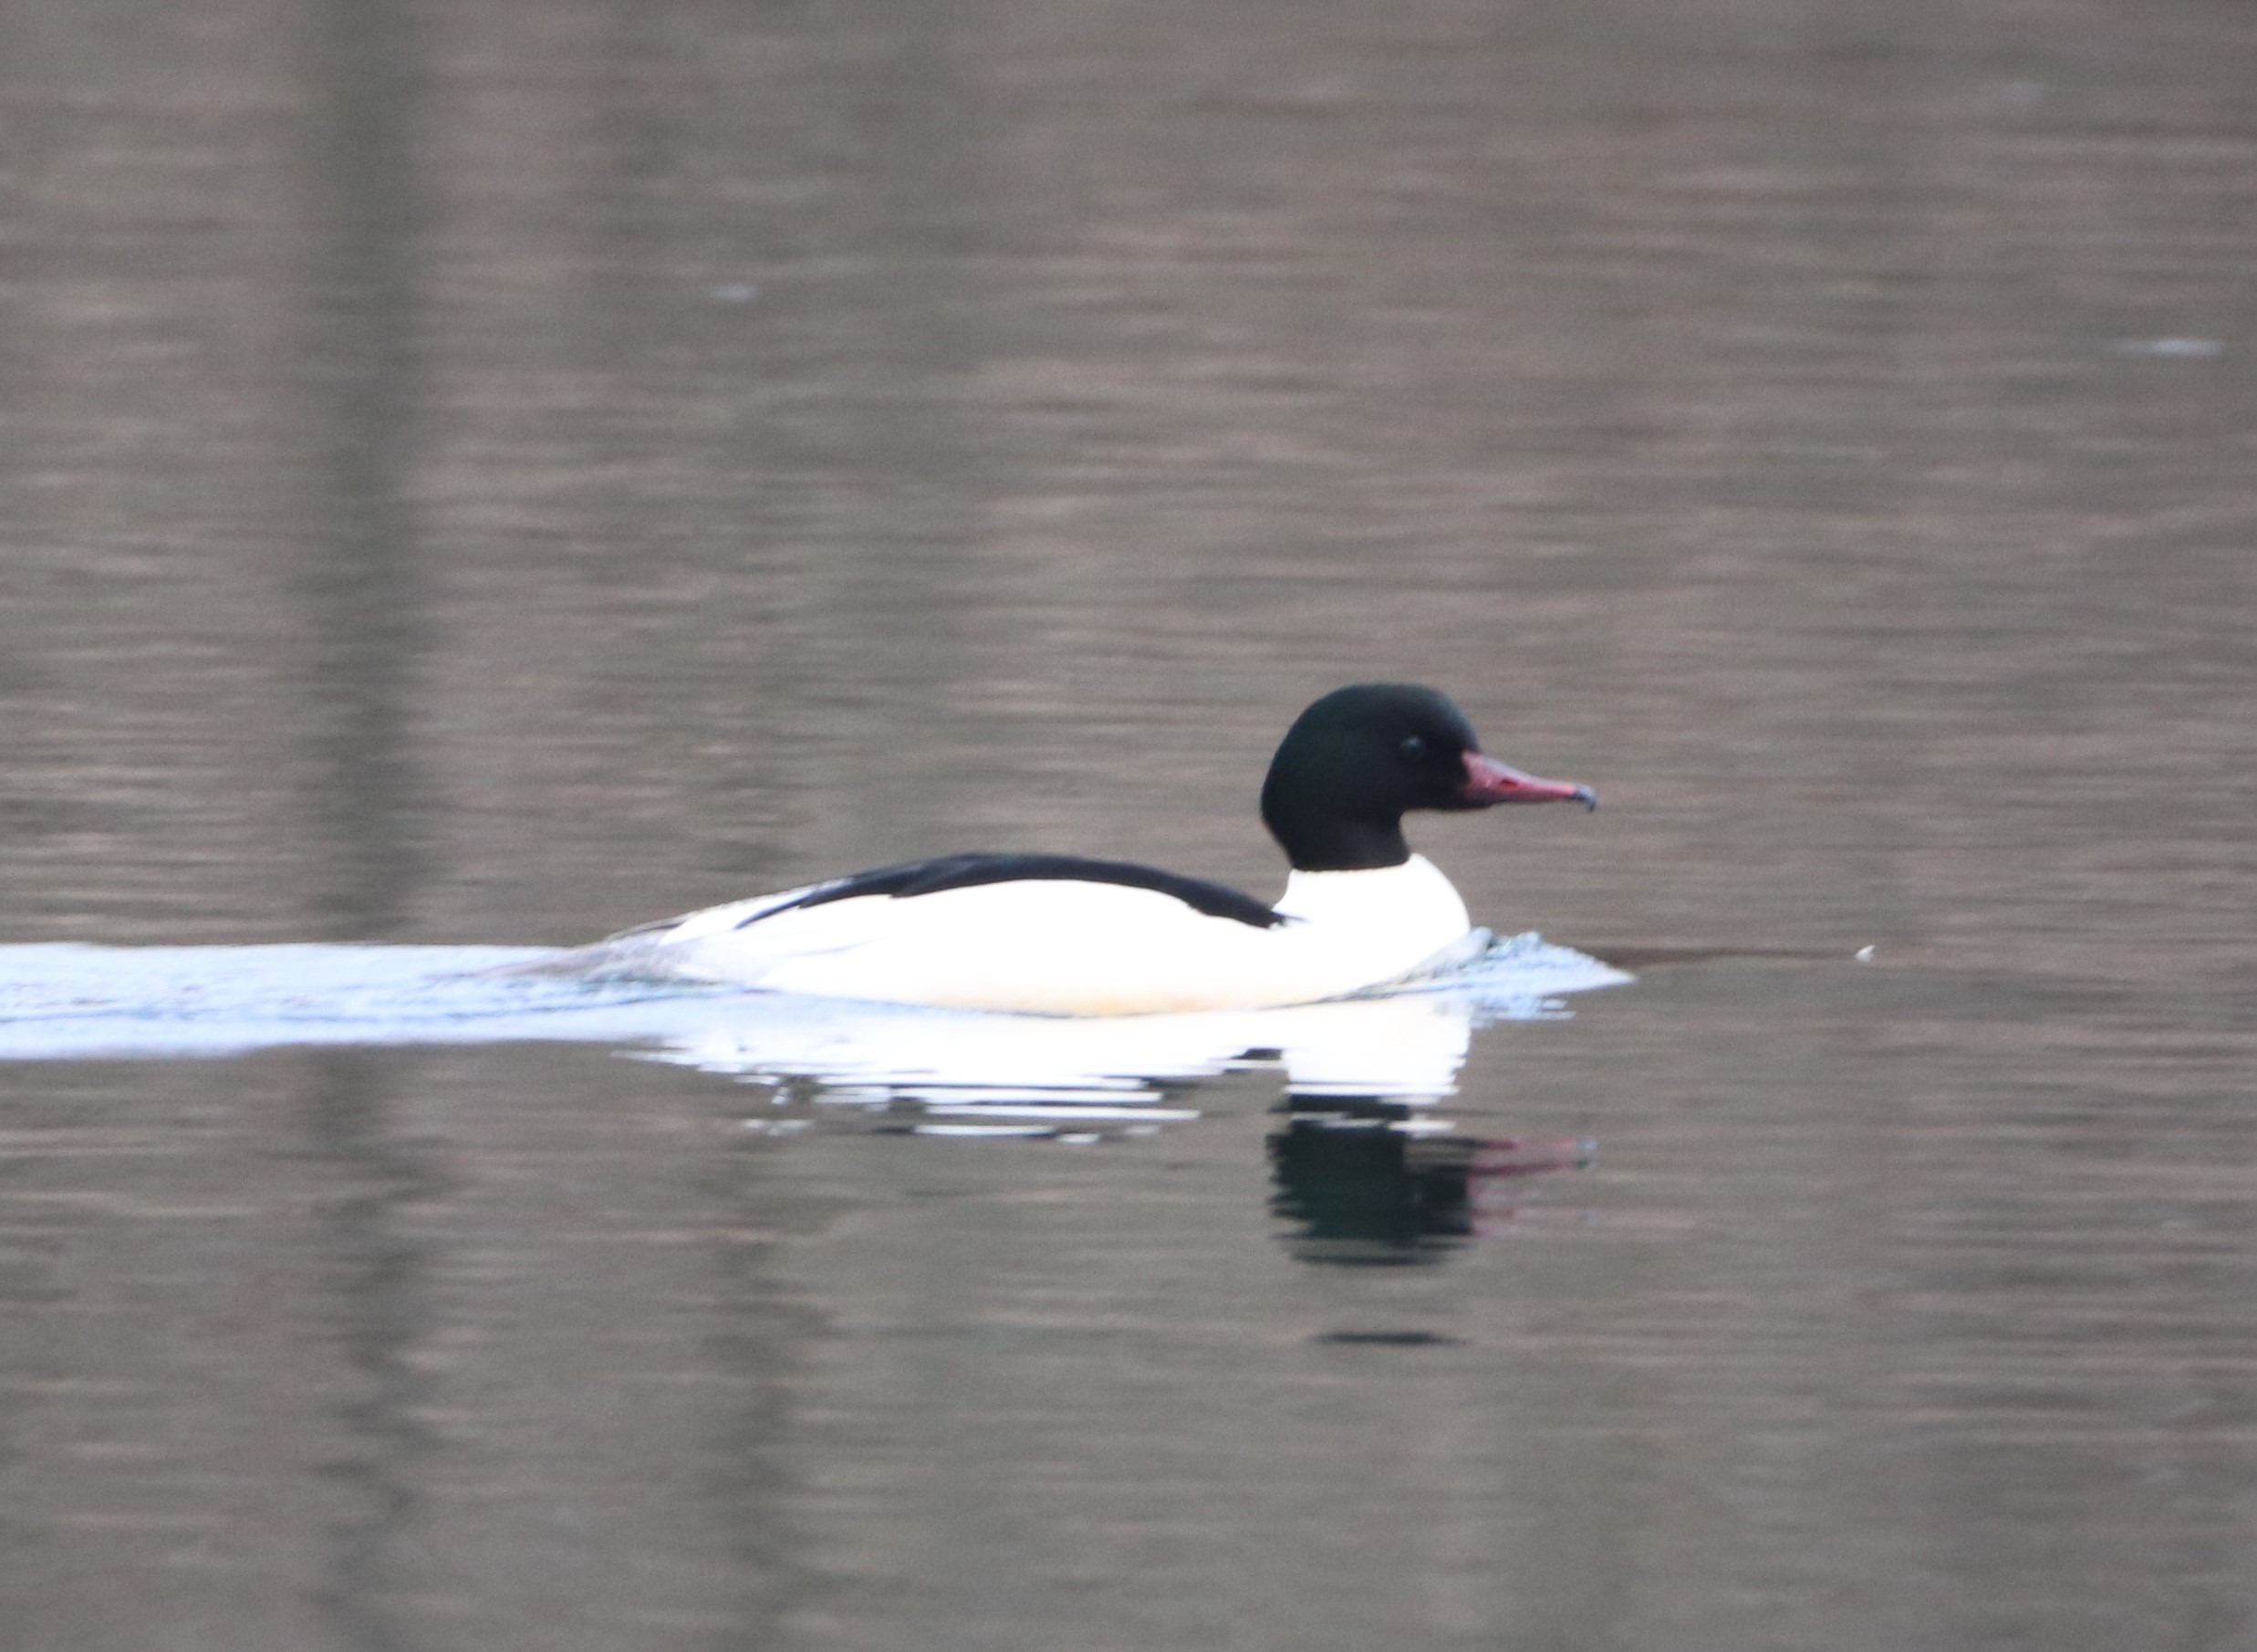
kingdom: Animalia
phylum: Chordata
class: Aves
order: Anseriformes
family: Anatidae
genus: Mergus
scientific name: Mergus merganser
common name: Stor skallesluger
